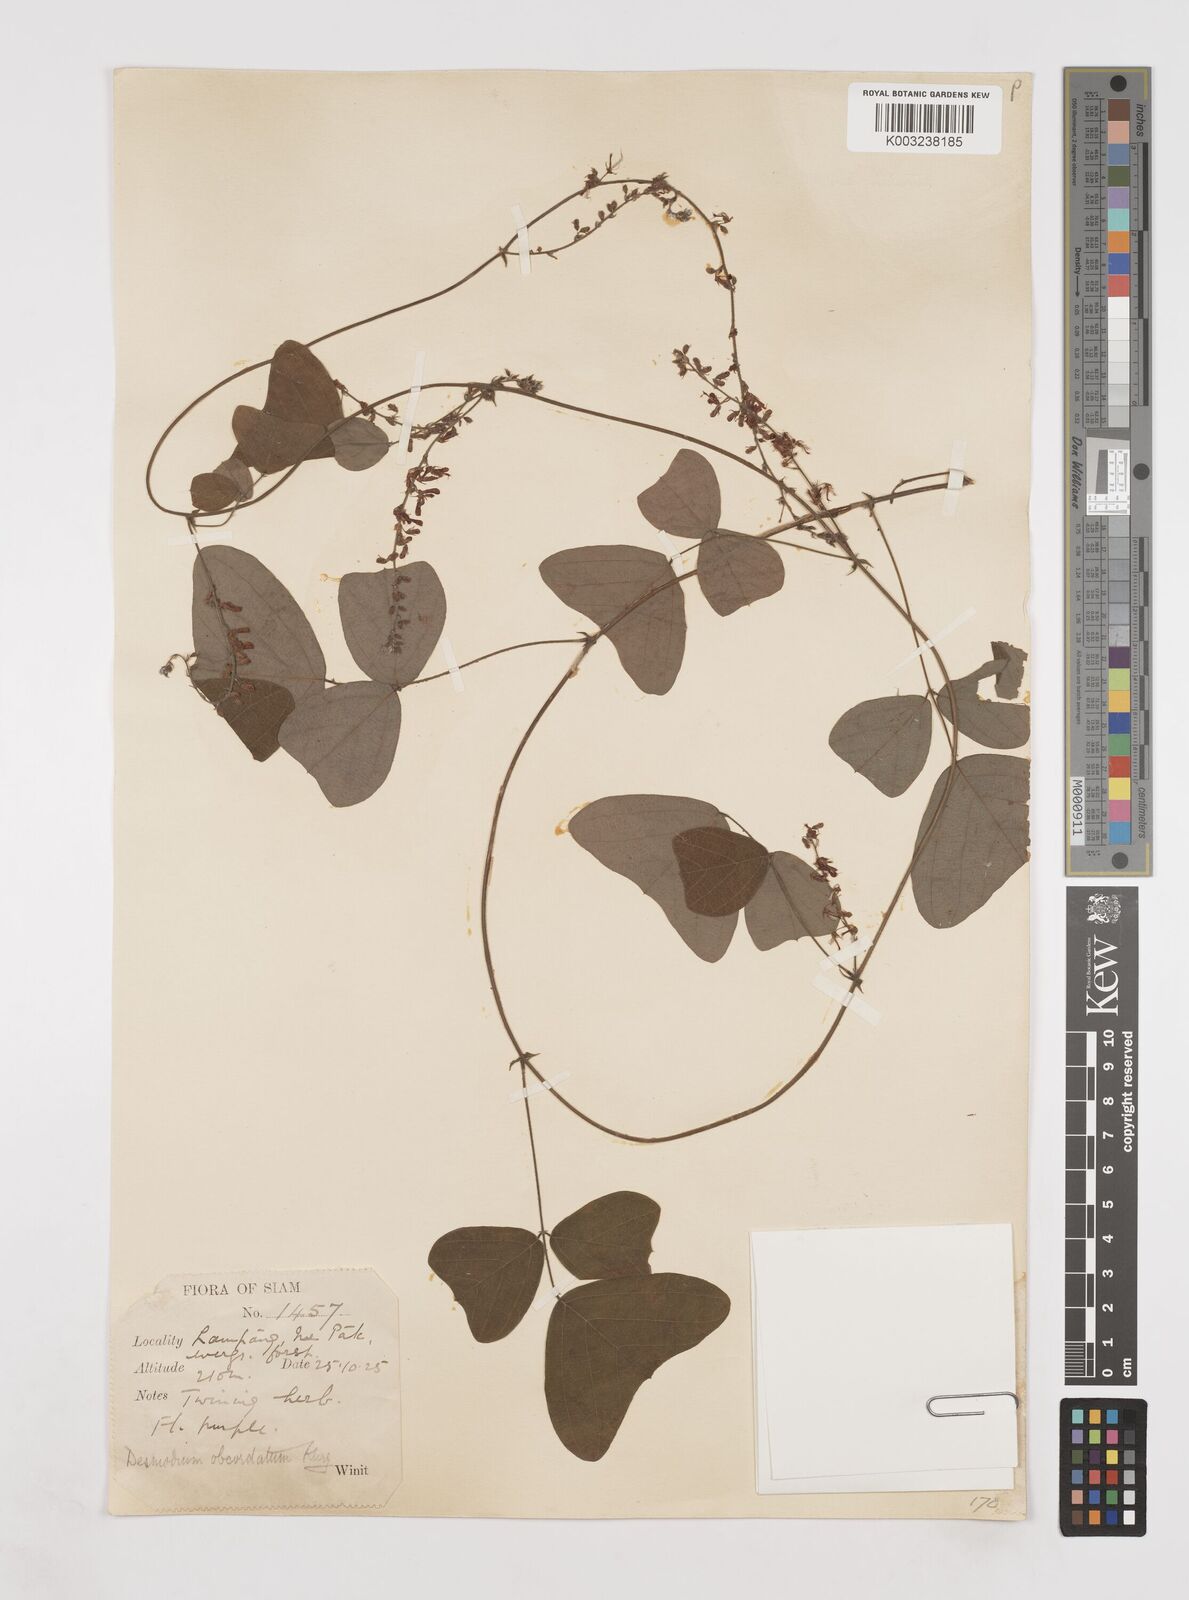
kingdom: Plantae
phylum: Tracheophyta
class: Magnoliopsida
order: Fabales
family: Fabaceae
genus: Hegnera
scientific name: Hegnera obcordata
